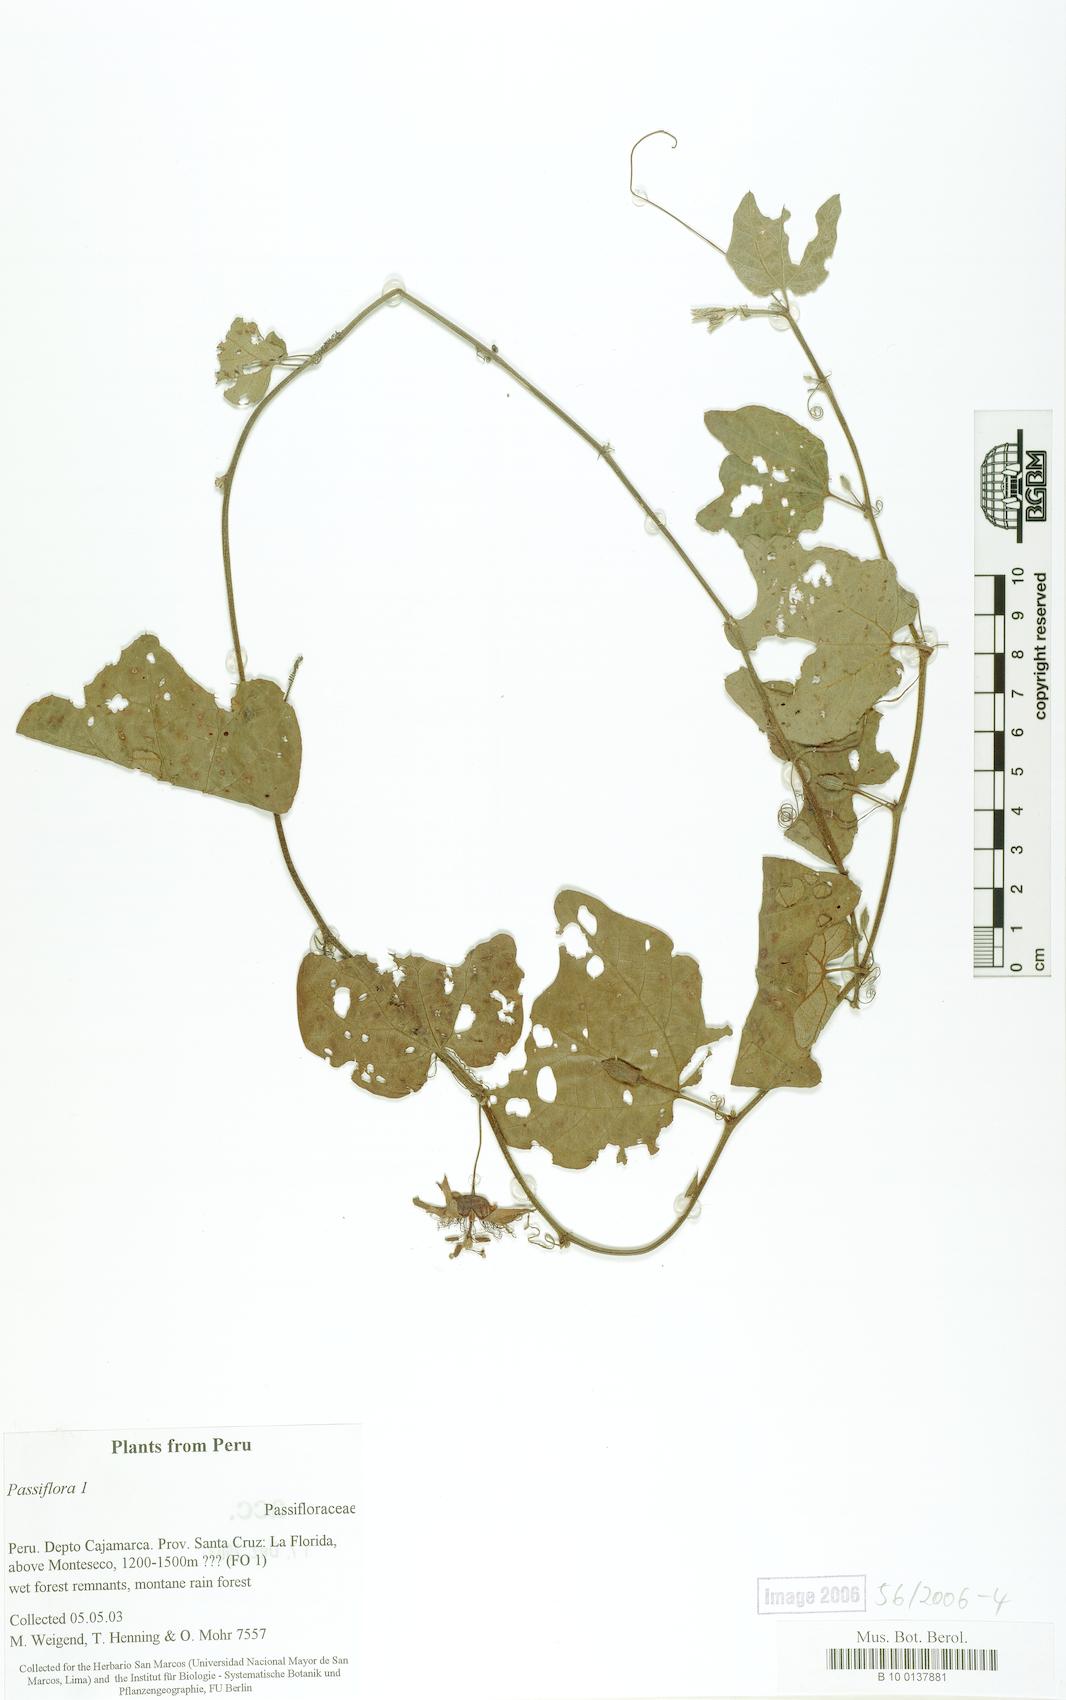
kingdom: Plantae
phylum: Tracheophyta
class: Magnoliopsida
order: Malpighiales
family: Passifloraceae
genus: Passiflora
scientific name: Passiflora
